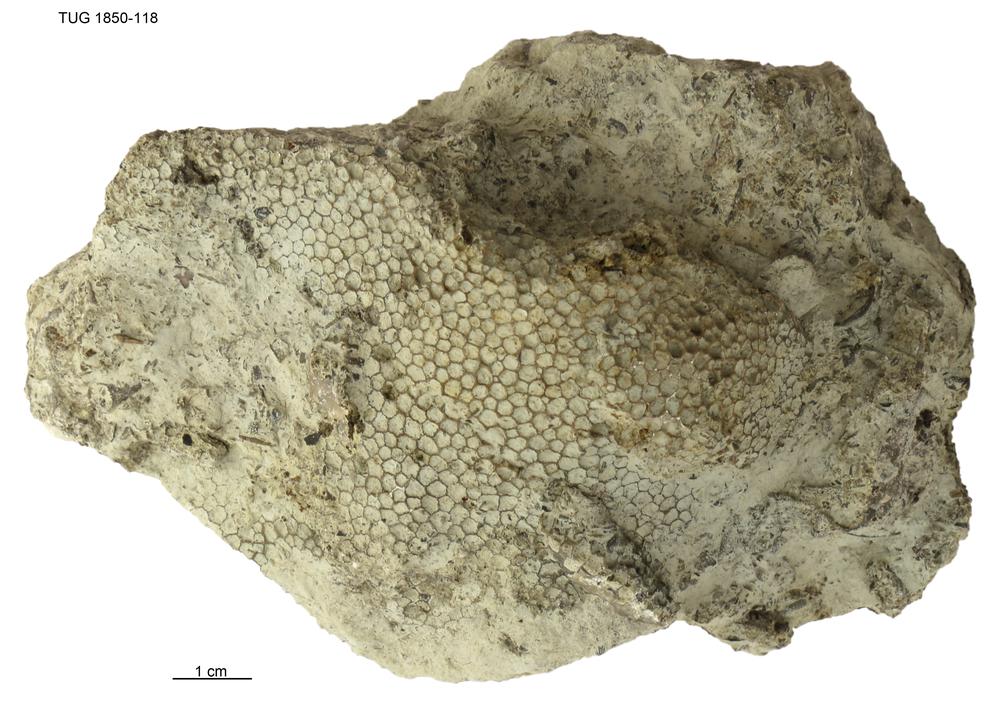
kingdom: Animalia
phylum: Cnidaria
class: Anthozoa
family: Favositidae
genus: Favosites
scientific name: Favosites
